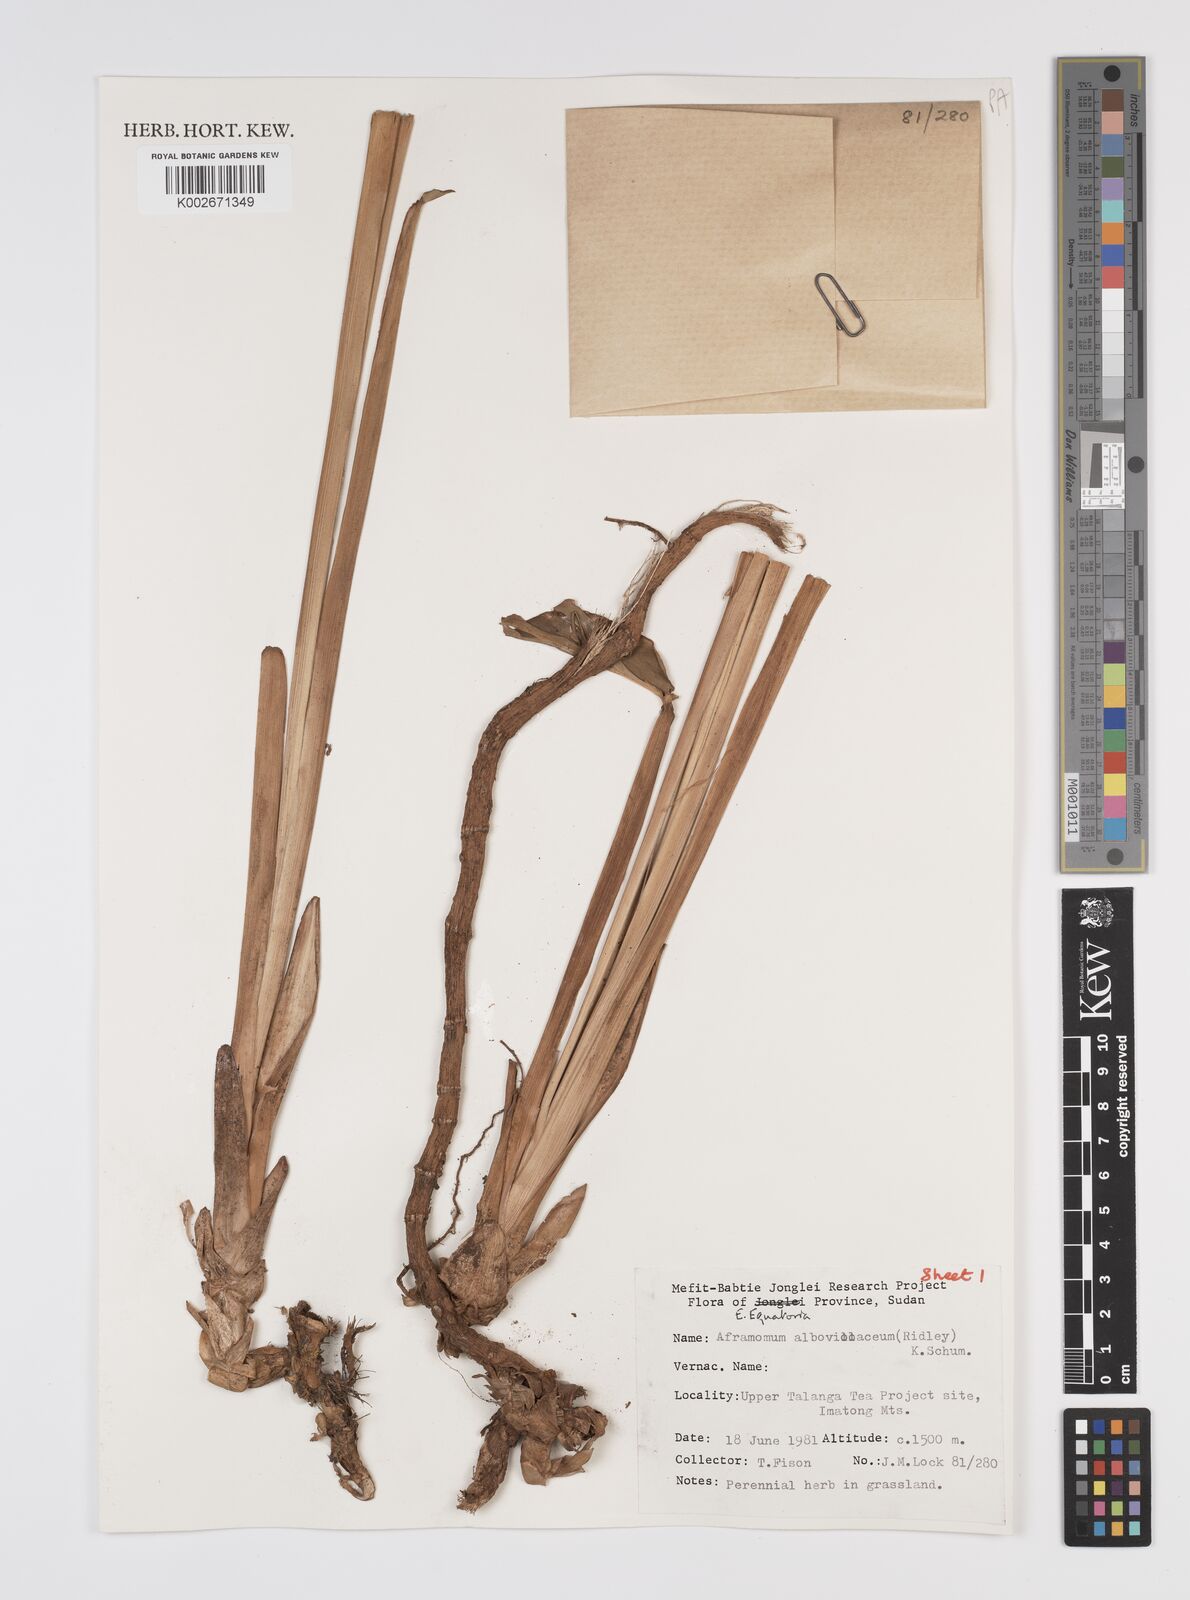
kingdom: Plantae
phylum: Tracheophyta
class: Liliopsida
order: Zingiberales
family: Zingiberaceae
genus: Aframomum
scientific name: Aframomum alboviolaceum
